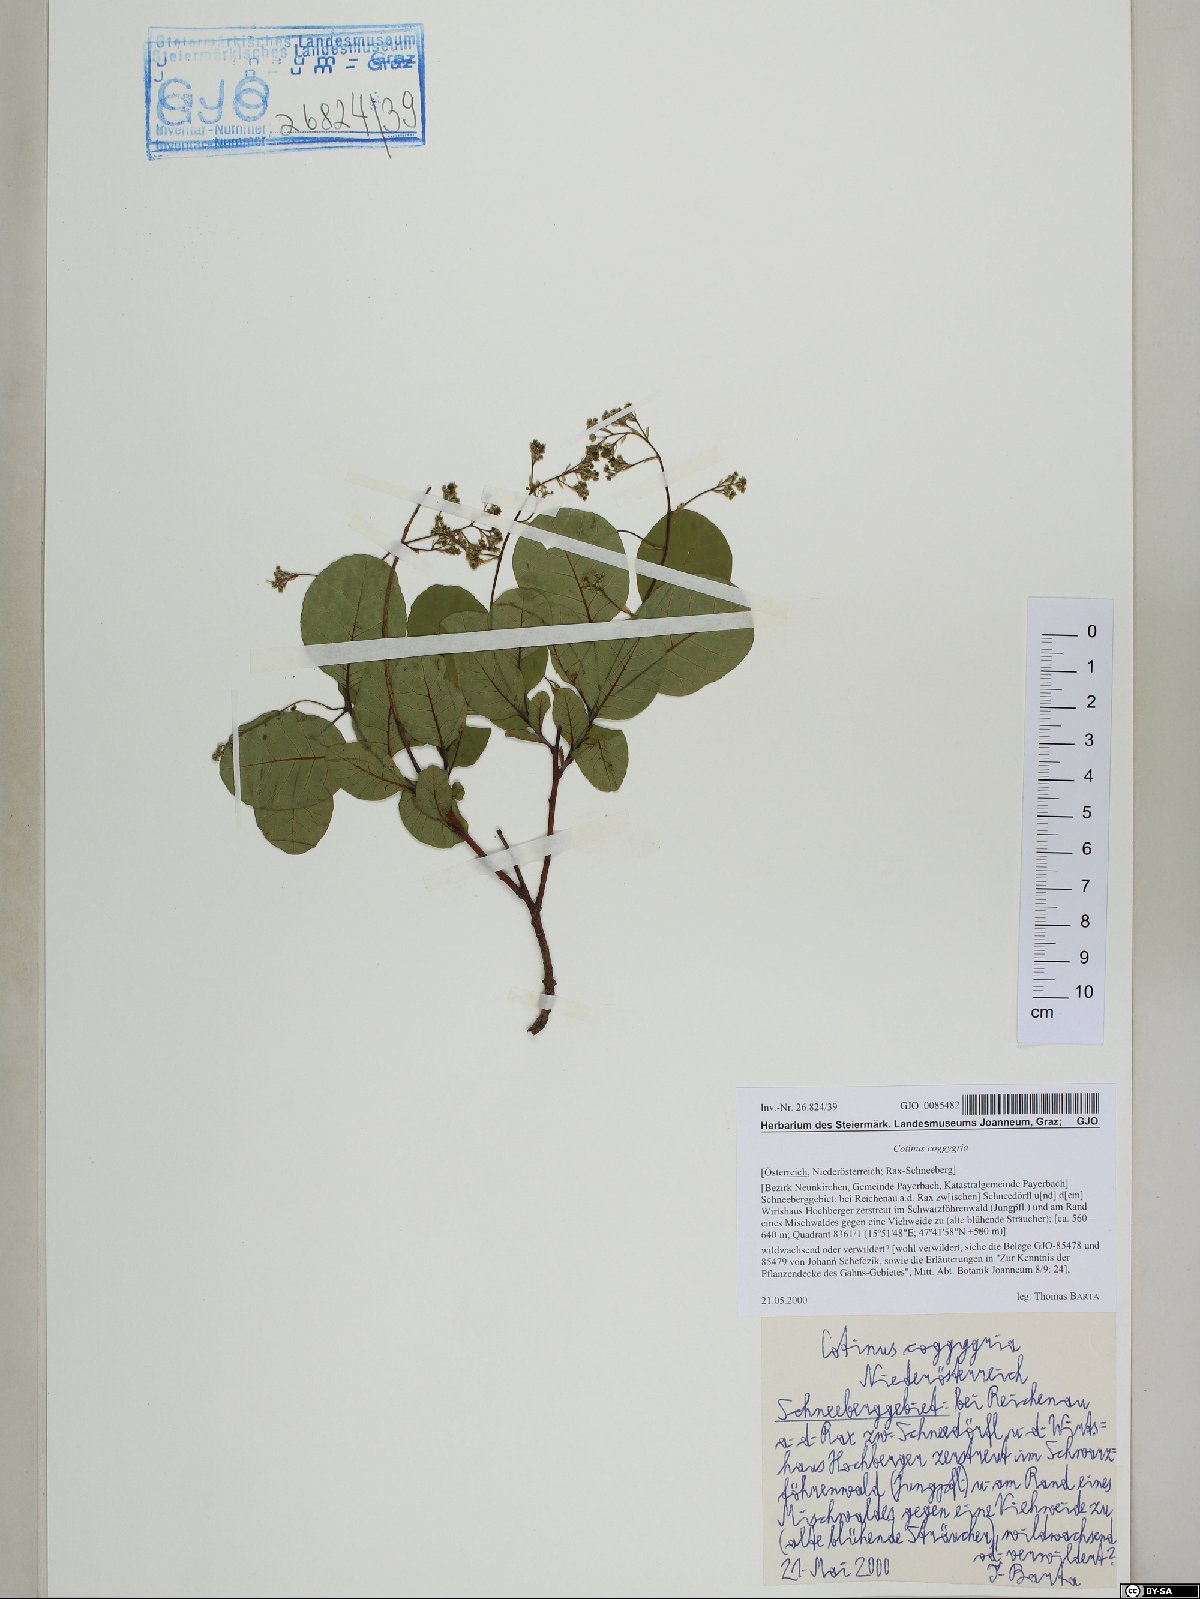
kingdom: Plantae
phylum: Tracheophyta
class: Magnoliopsida
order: Sapindales
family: Anacardiaceae
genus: Cotinus
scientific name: Cotinus coggygria
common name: Smoke-tree
